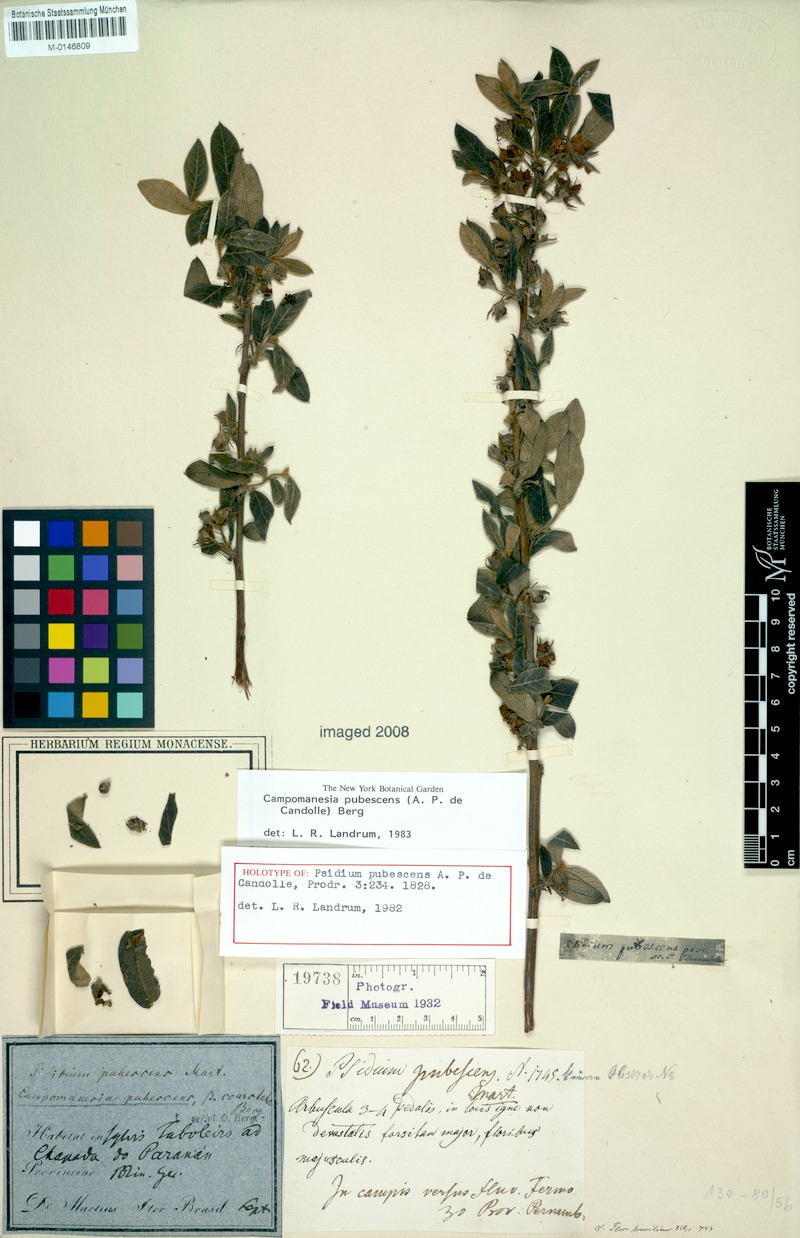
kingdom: Plantae
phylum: Tracheophyta
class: Magnoliopsida
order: Myrtales
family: Myrtaceae
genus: Campomanesia
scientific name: Campomanesia pubescens
